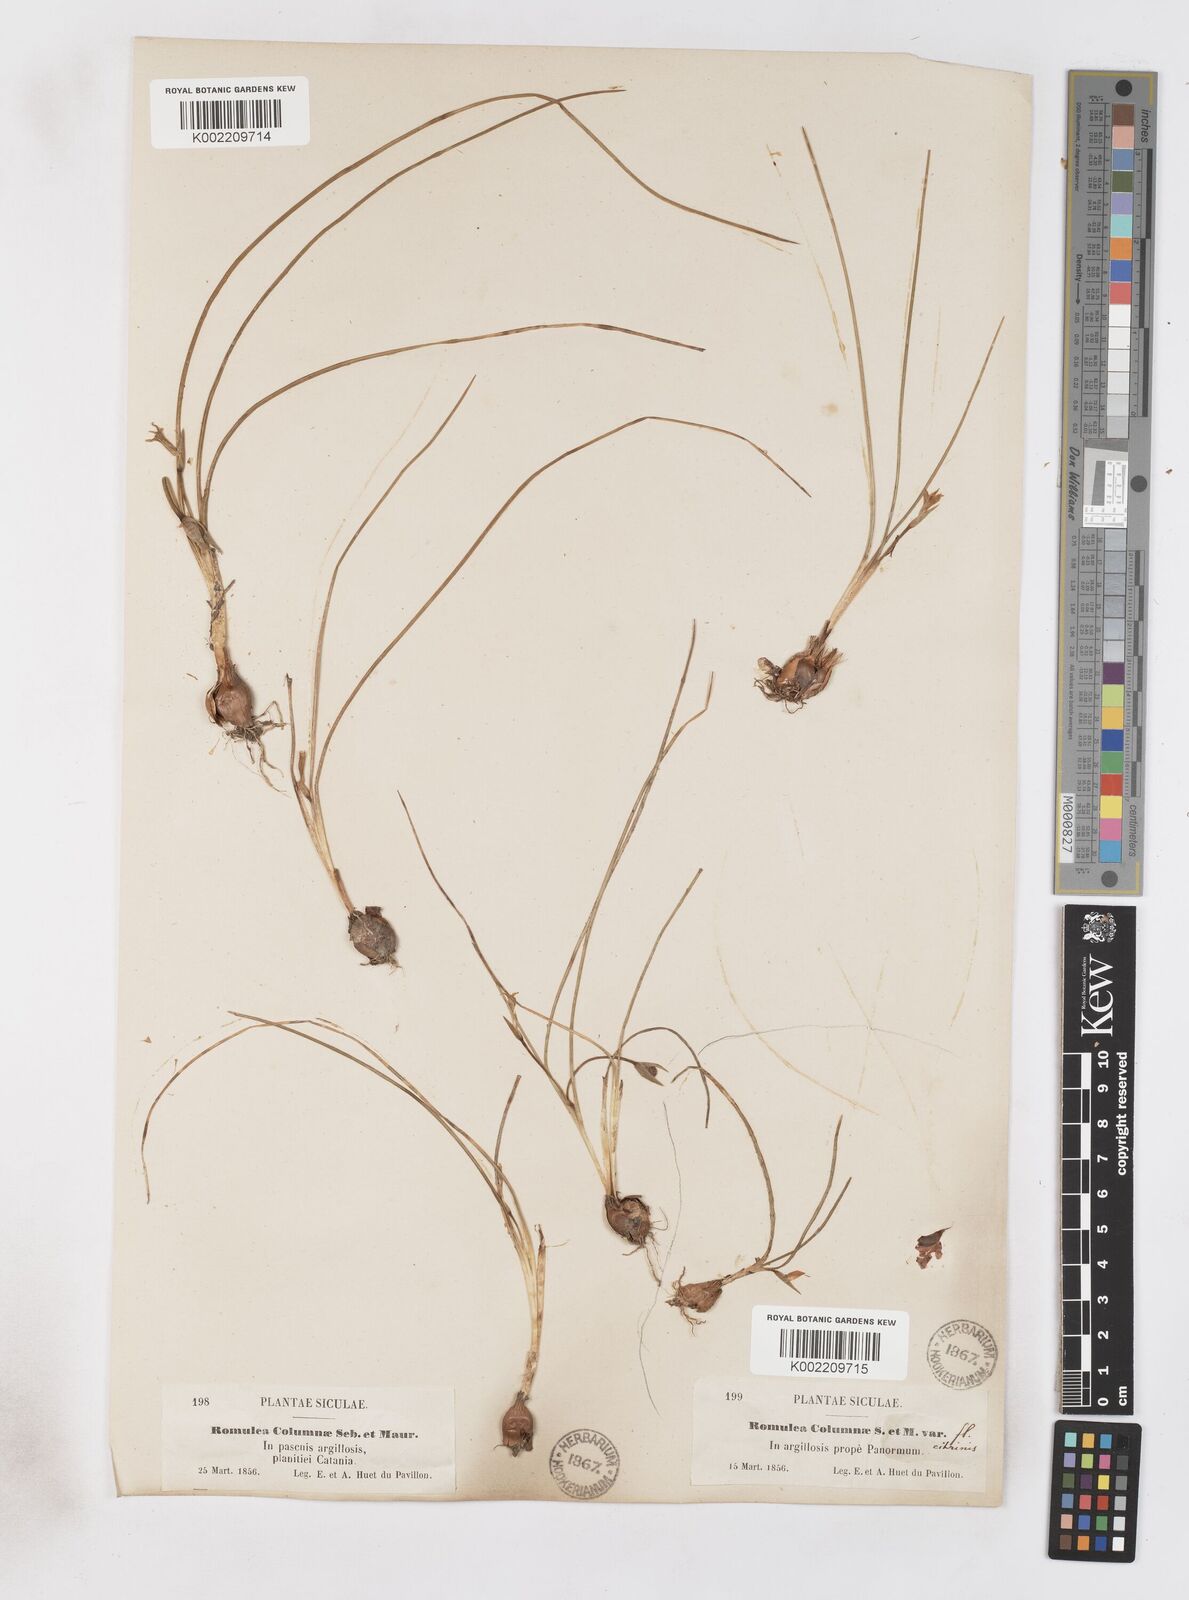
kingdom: Plantae
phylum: Tracheophyta
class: Liliopsida
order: Asparagales
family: Iridaceae
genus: Romulea
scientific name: Romulea ramiflora
